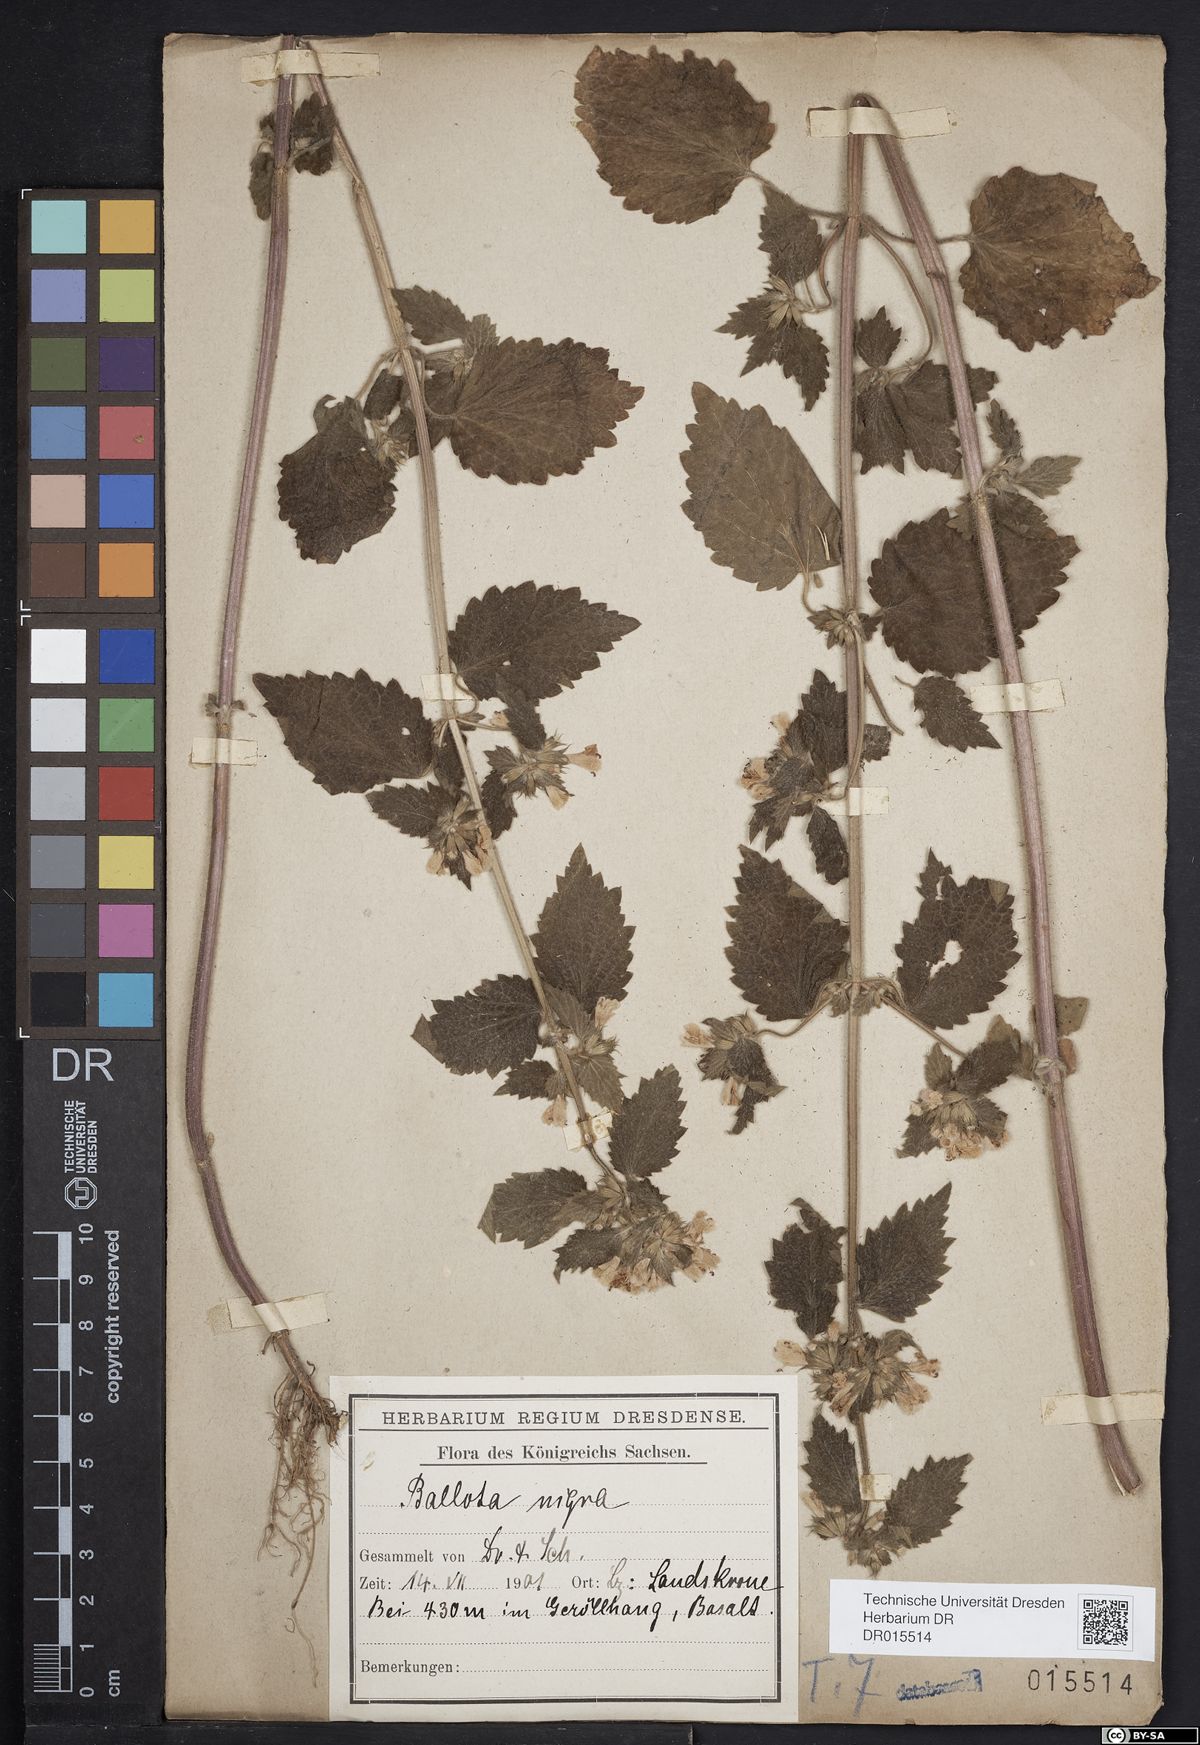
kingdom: Plantae
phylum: Tracheophyta
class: Magnoliopsida
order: Lamiales
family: Lamiaceae
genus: Ballota
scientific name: Ballota nigra
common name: Black horehound
